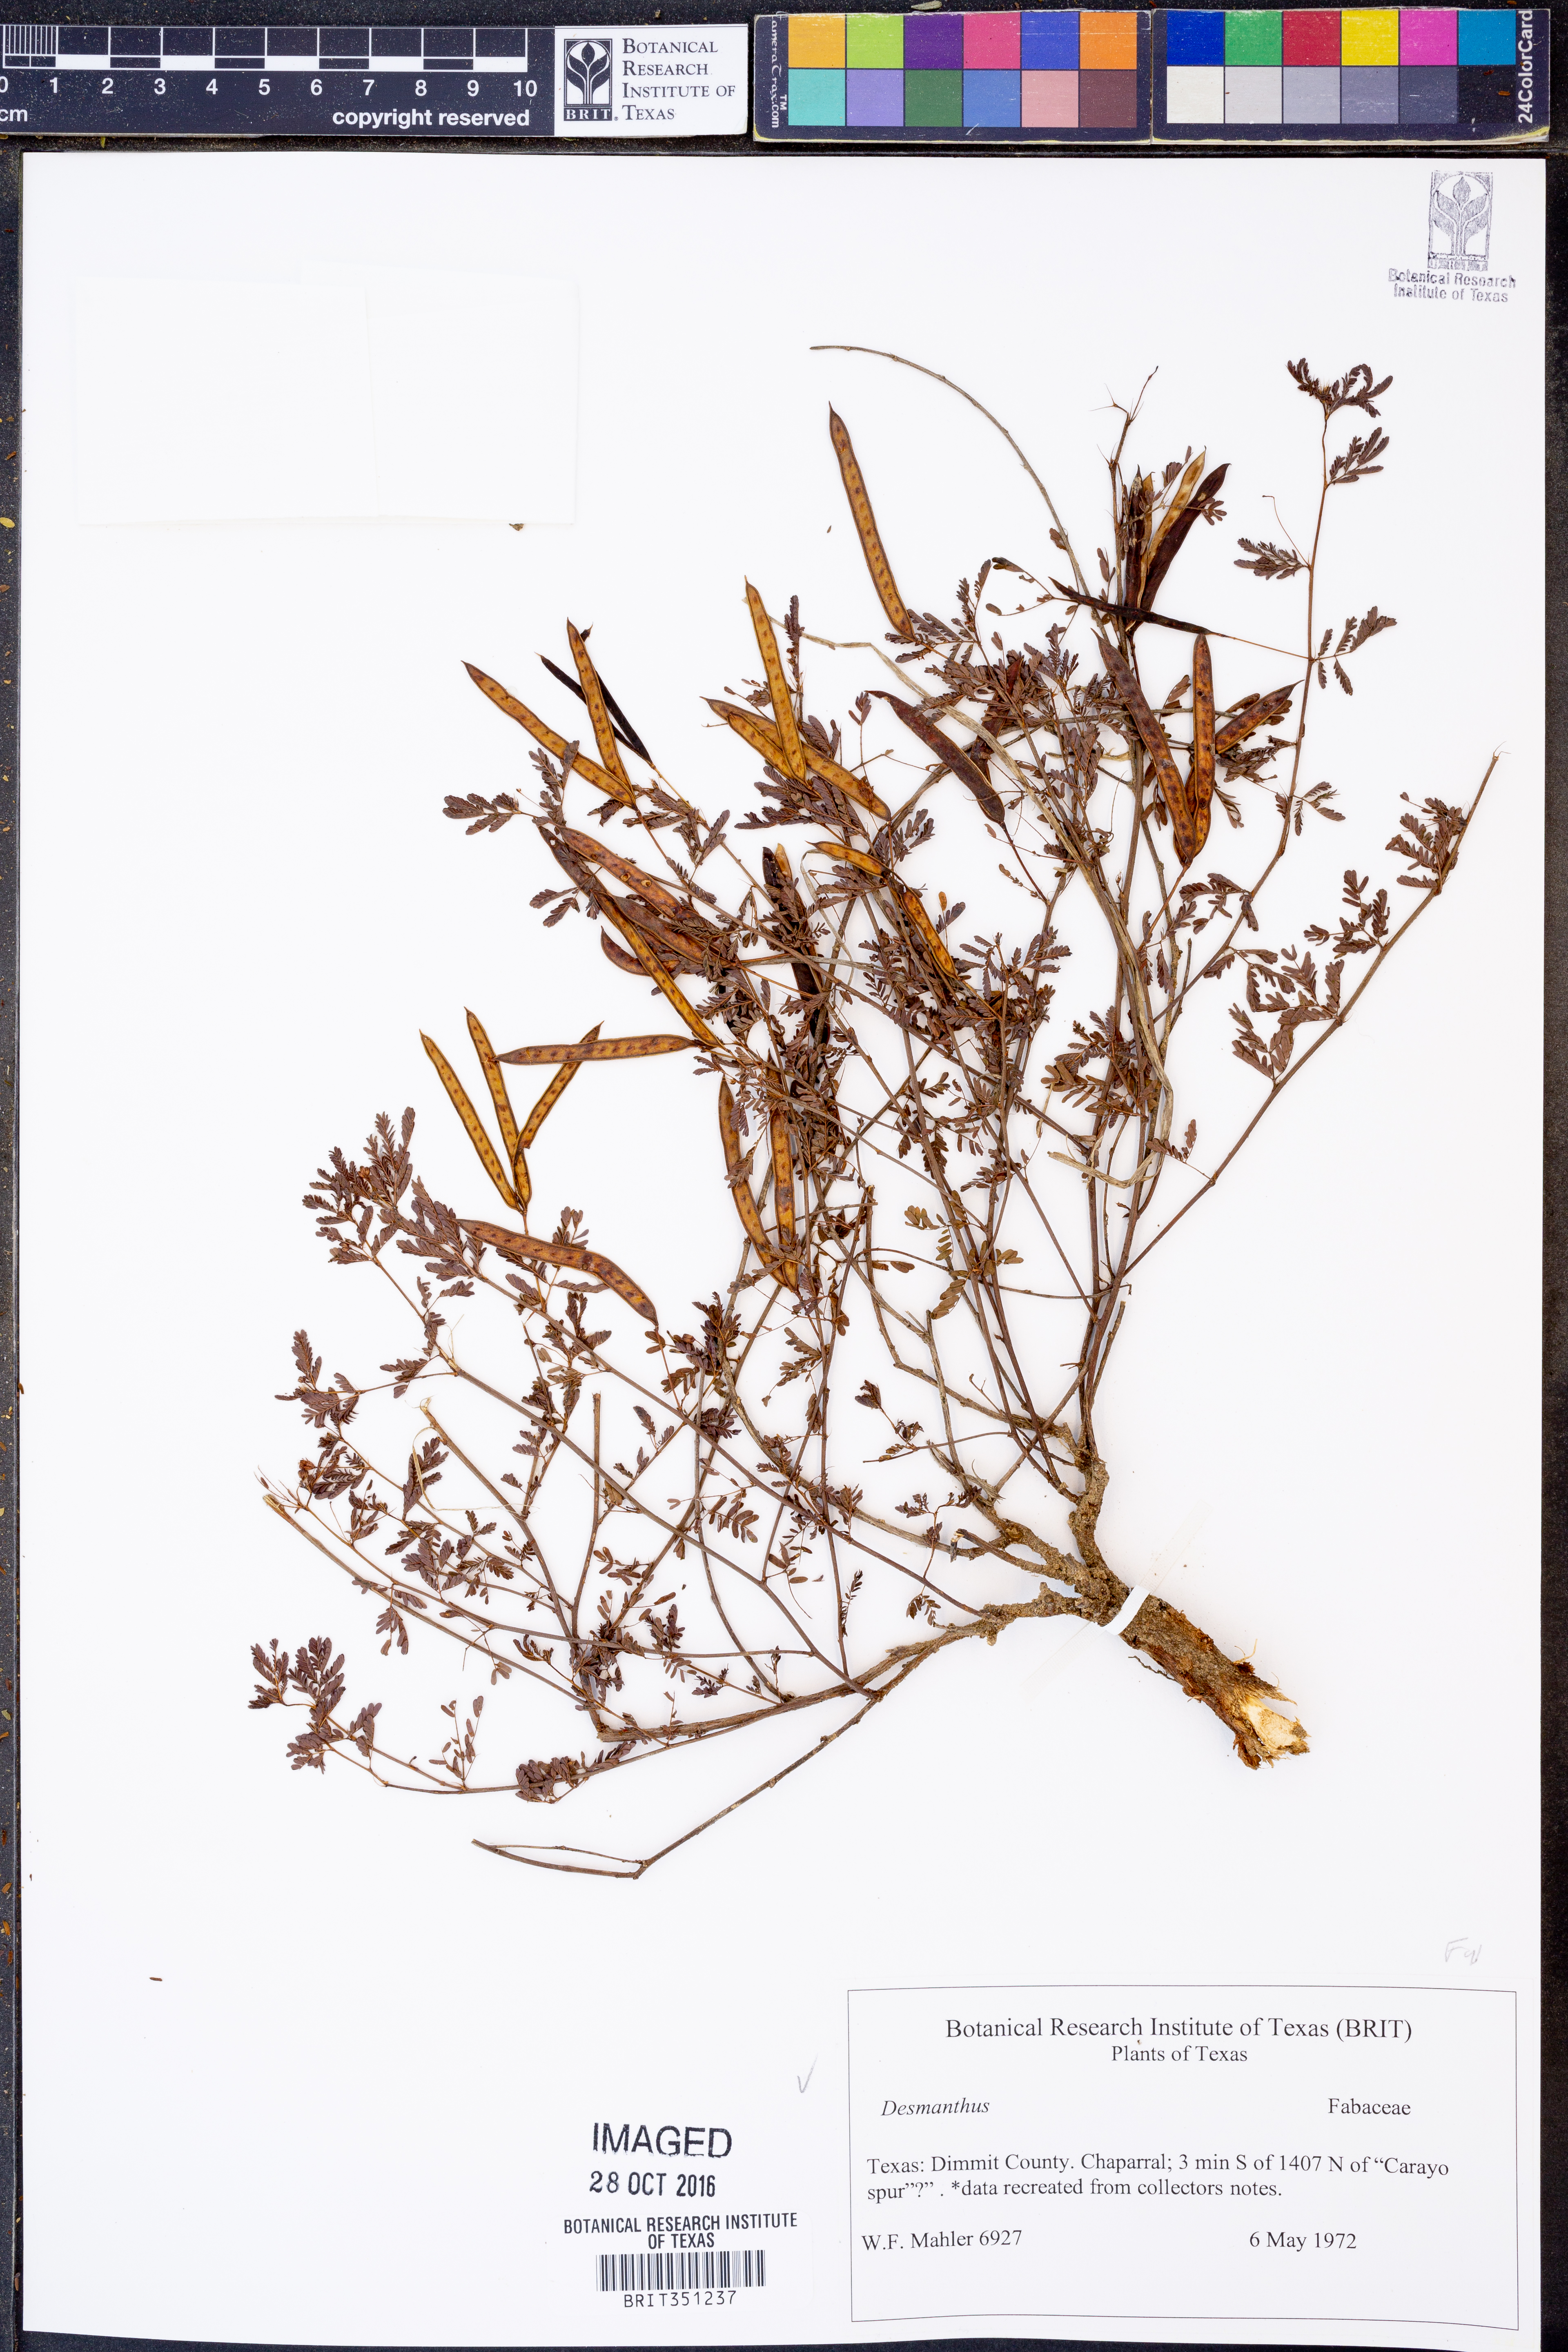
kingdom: Plantae
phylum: Tracheophyta
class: Magnoliopsida
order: Fabales
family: Fabaceae
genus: Desmanthus
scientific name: Desmanthus
